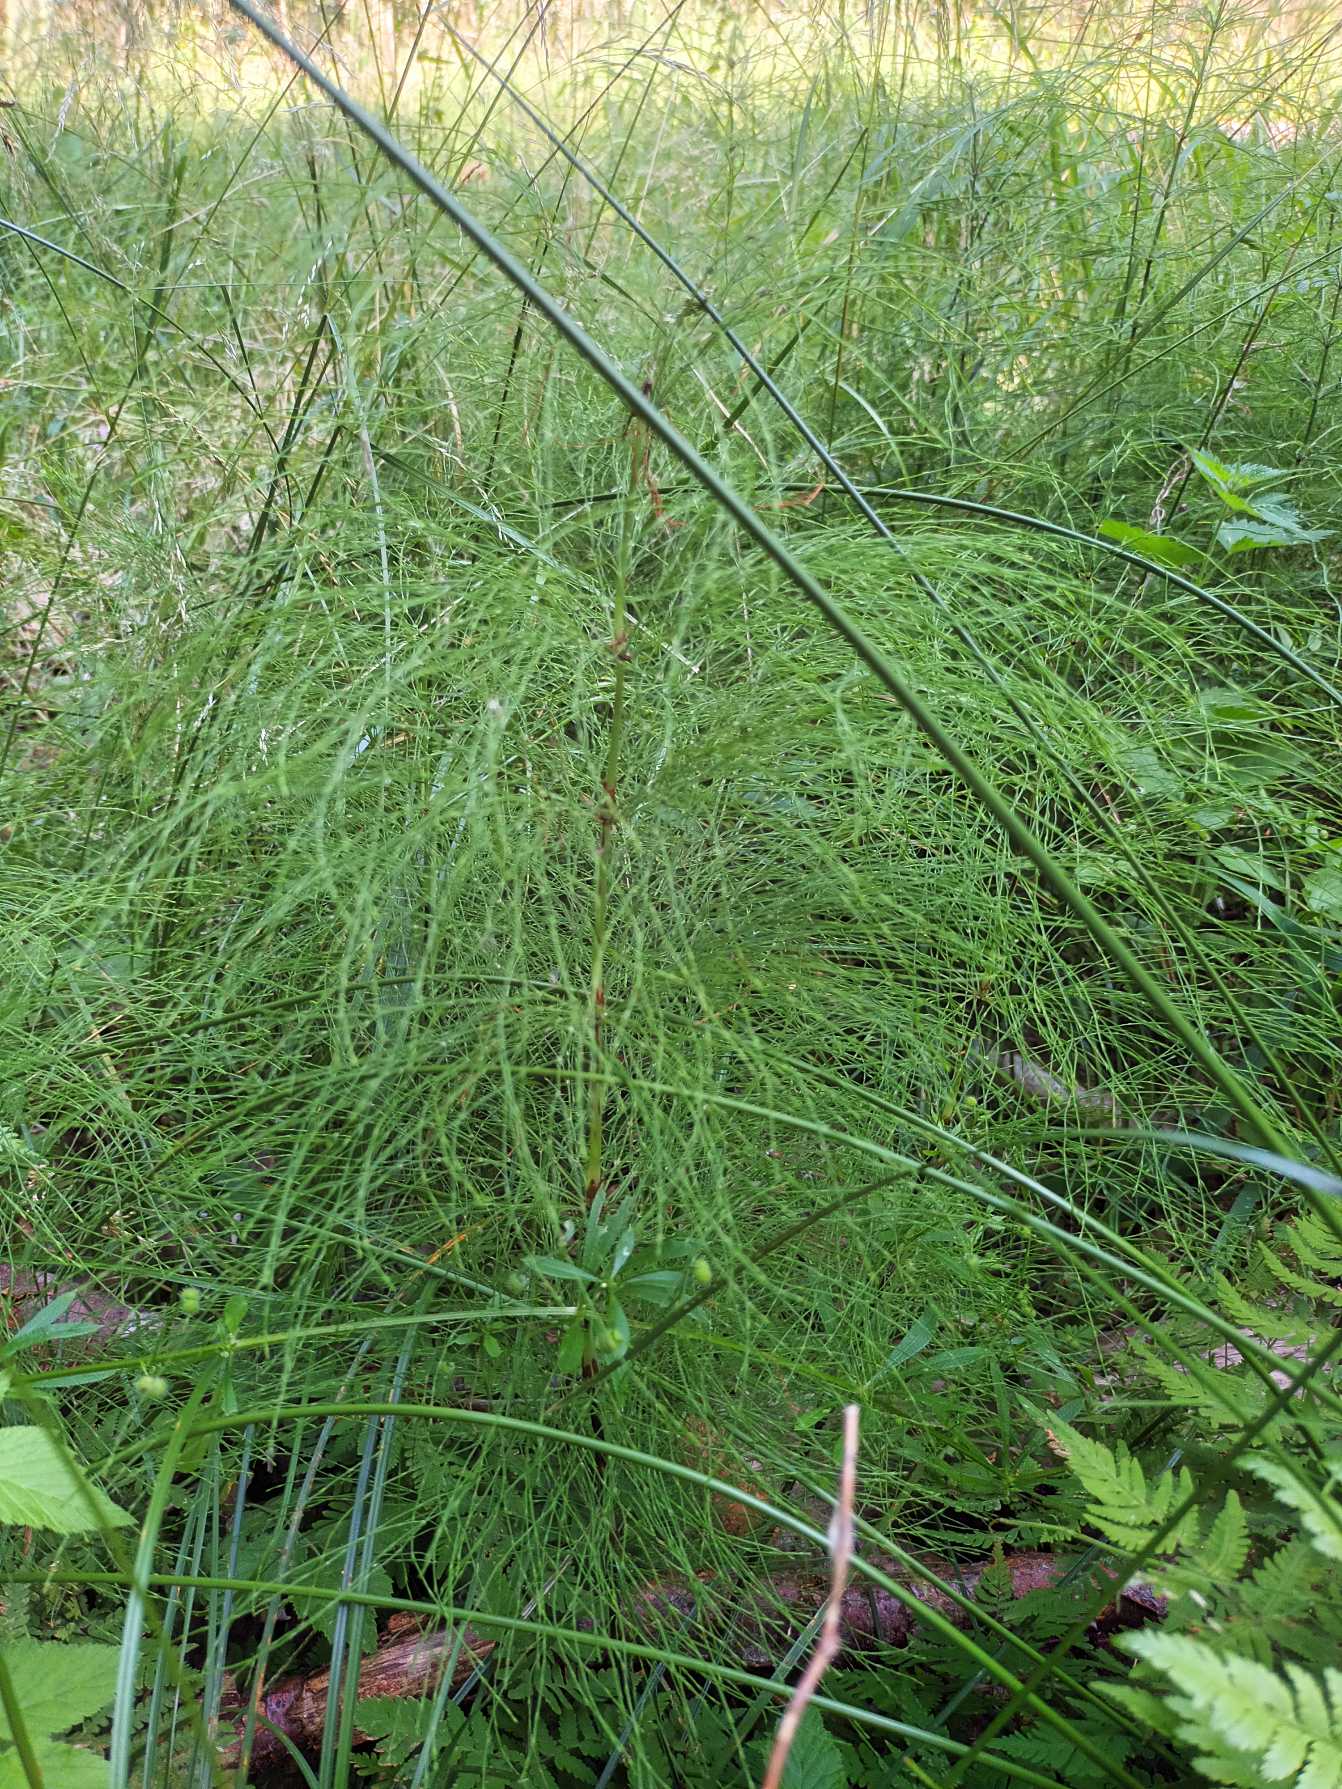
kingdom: Plantae
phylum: Tracheophyta
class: Polypodiopsida
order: Equisetales
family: Equisetaceae
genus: Equisetum
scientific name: Equisetum sylvaticum
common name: Skov-padderok
